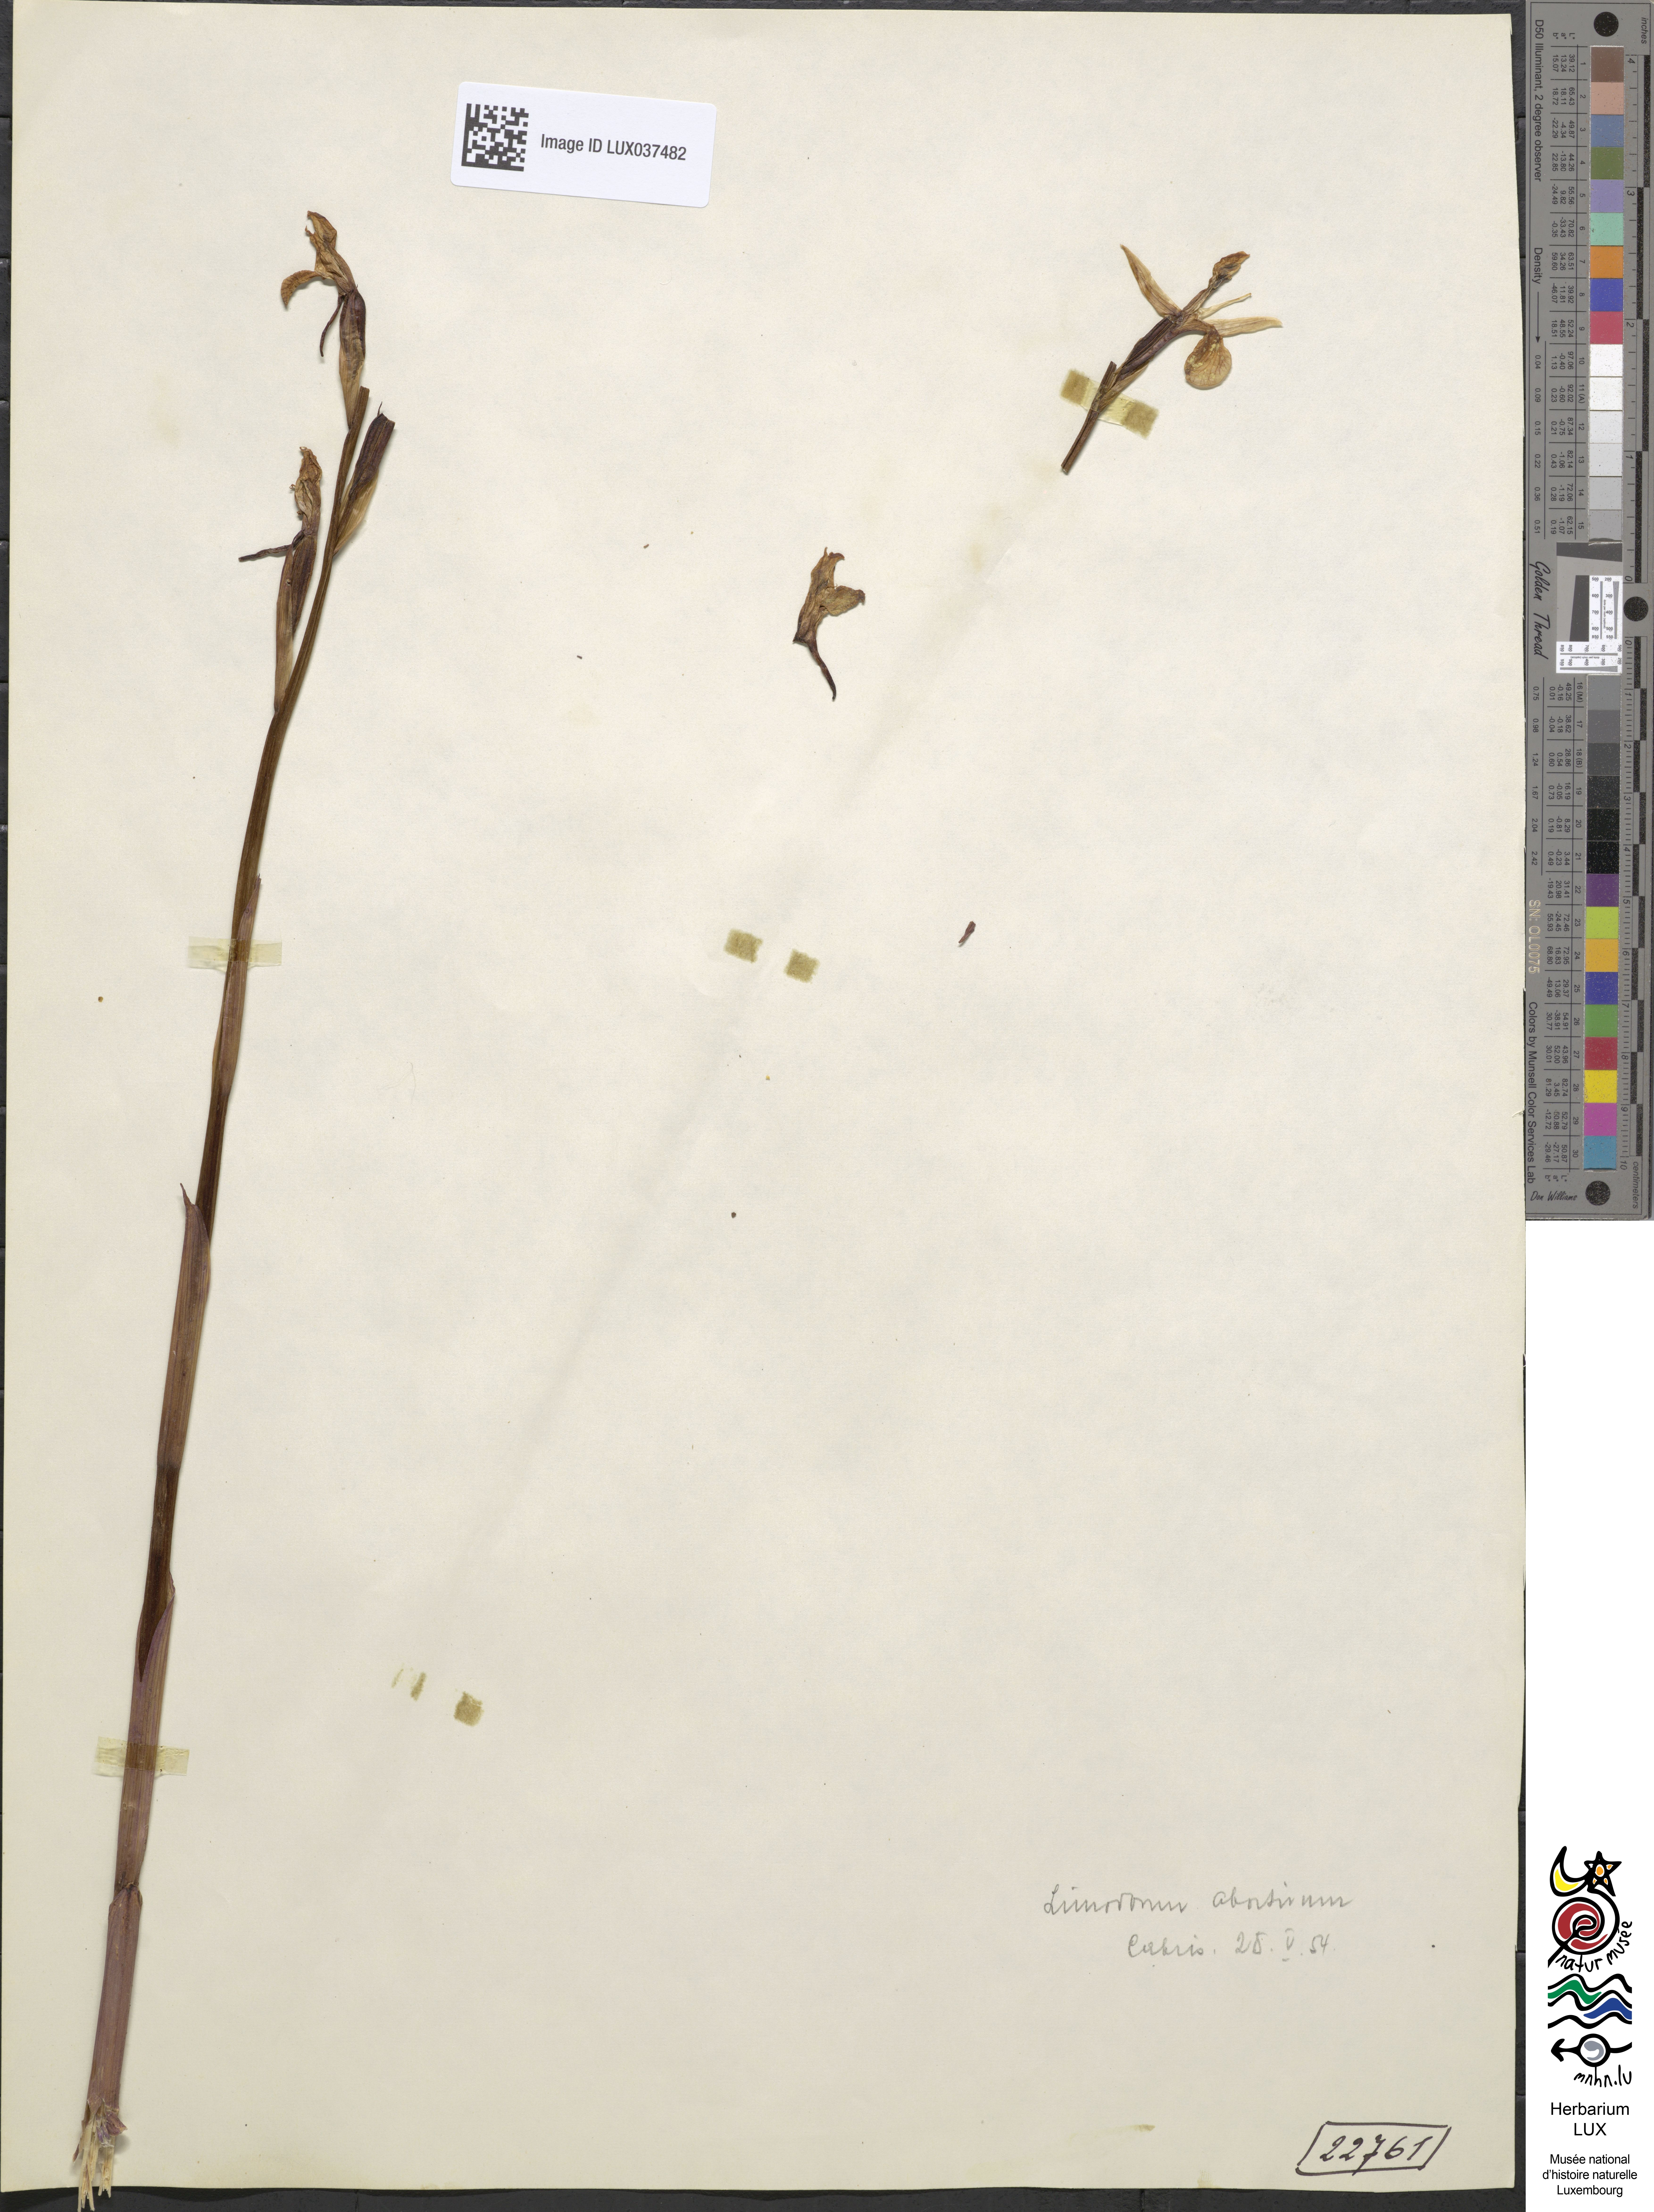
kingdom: Plantae
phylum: Tracheophyta
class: Liliopsida
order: Asparagales
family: Orchidaceae
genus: Limodorum
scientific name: Limodorum abortivum
